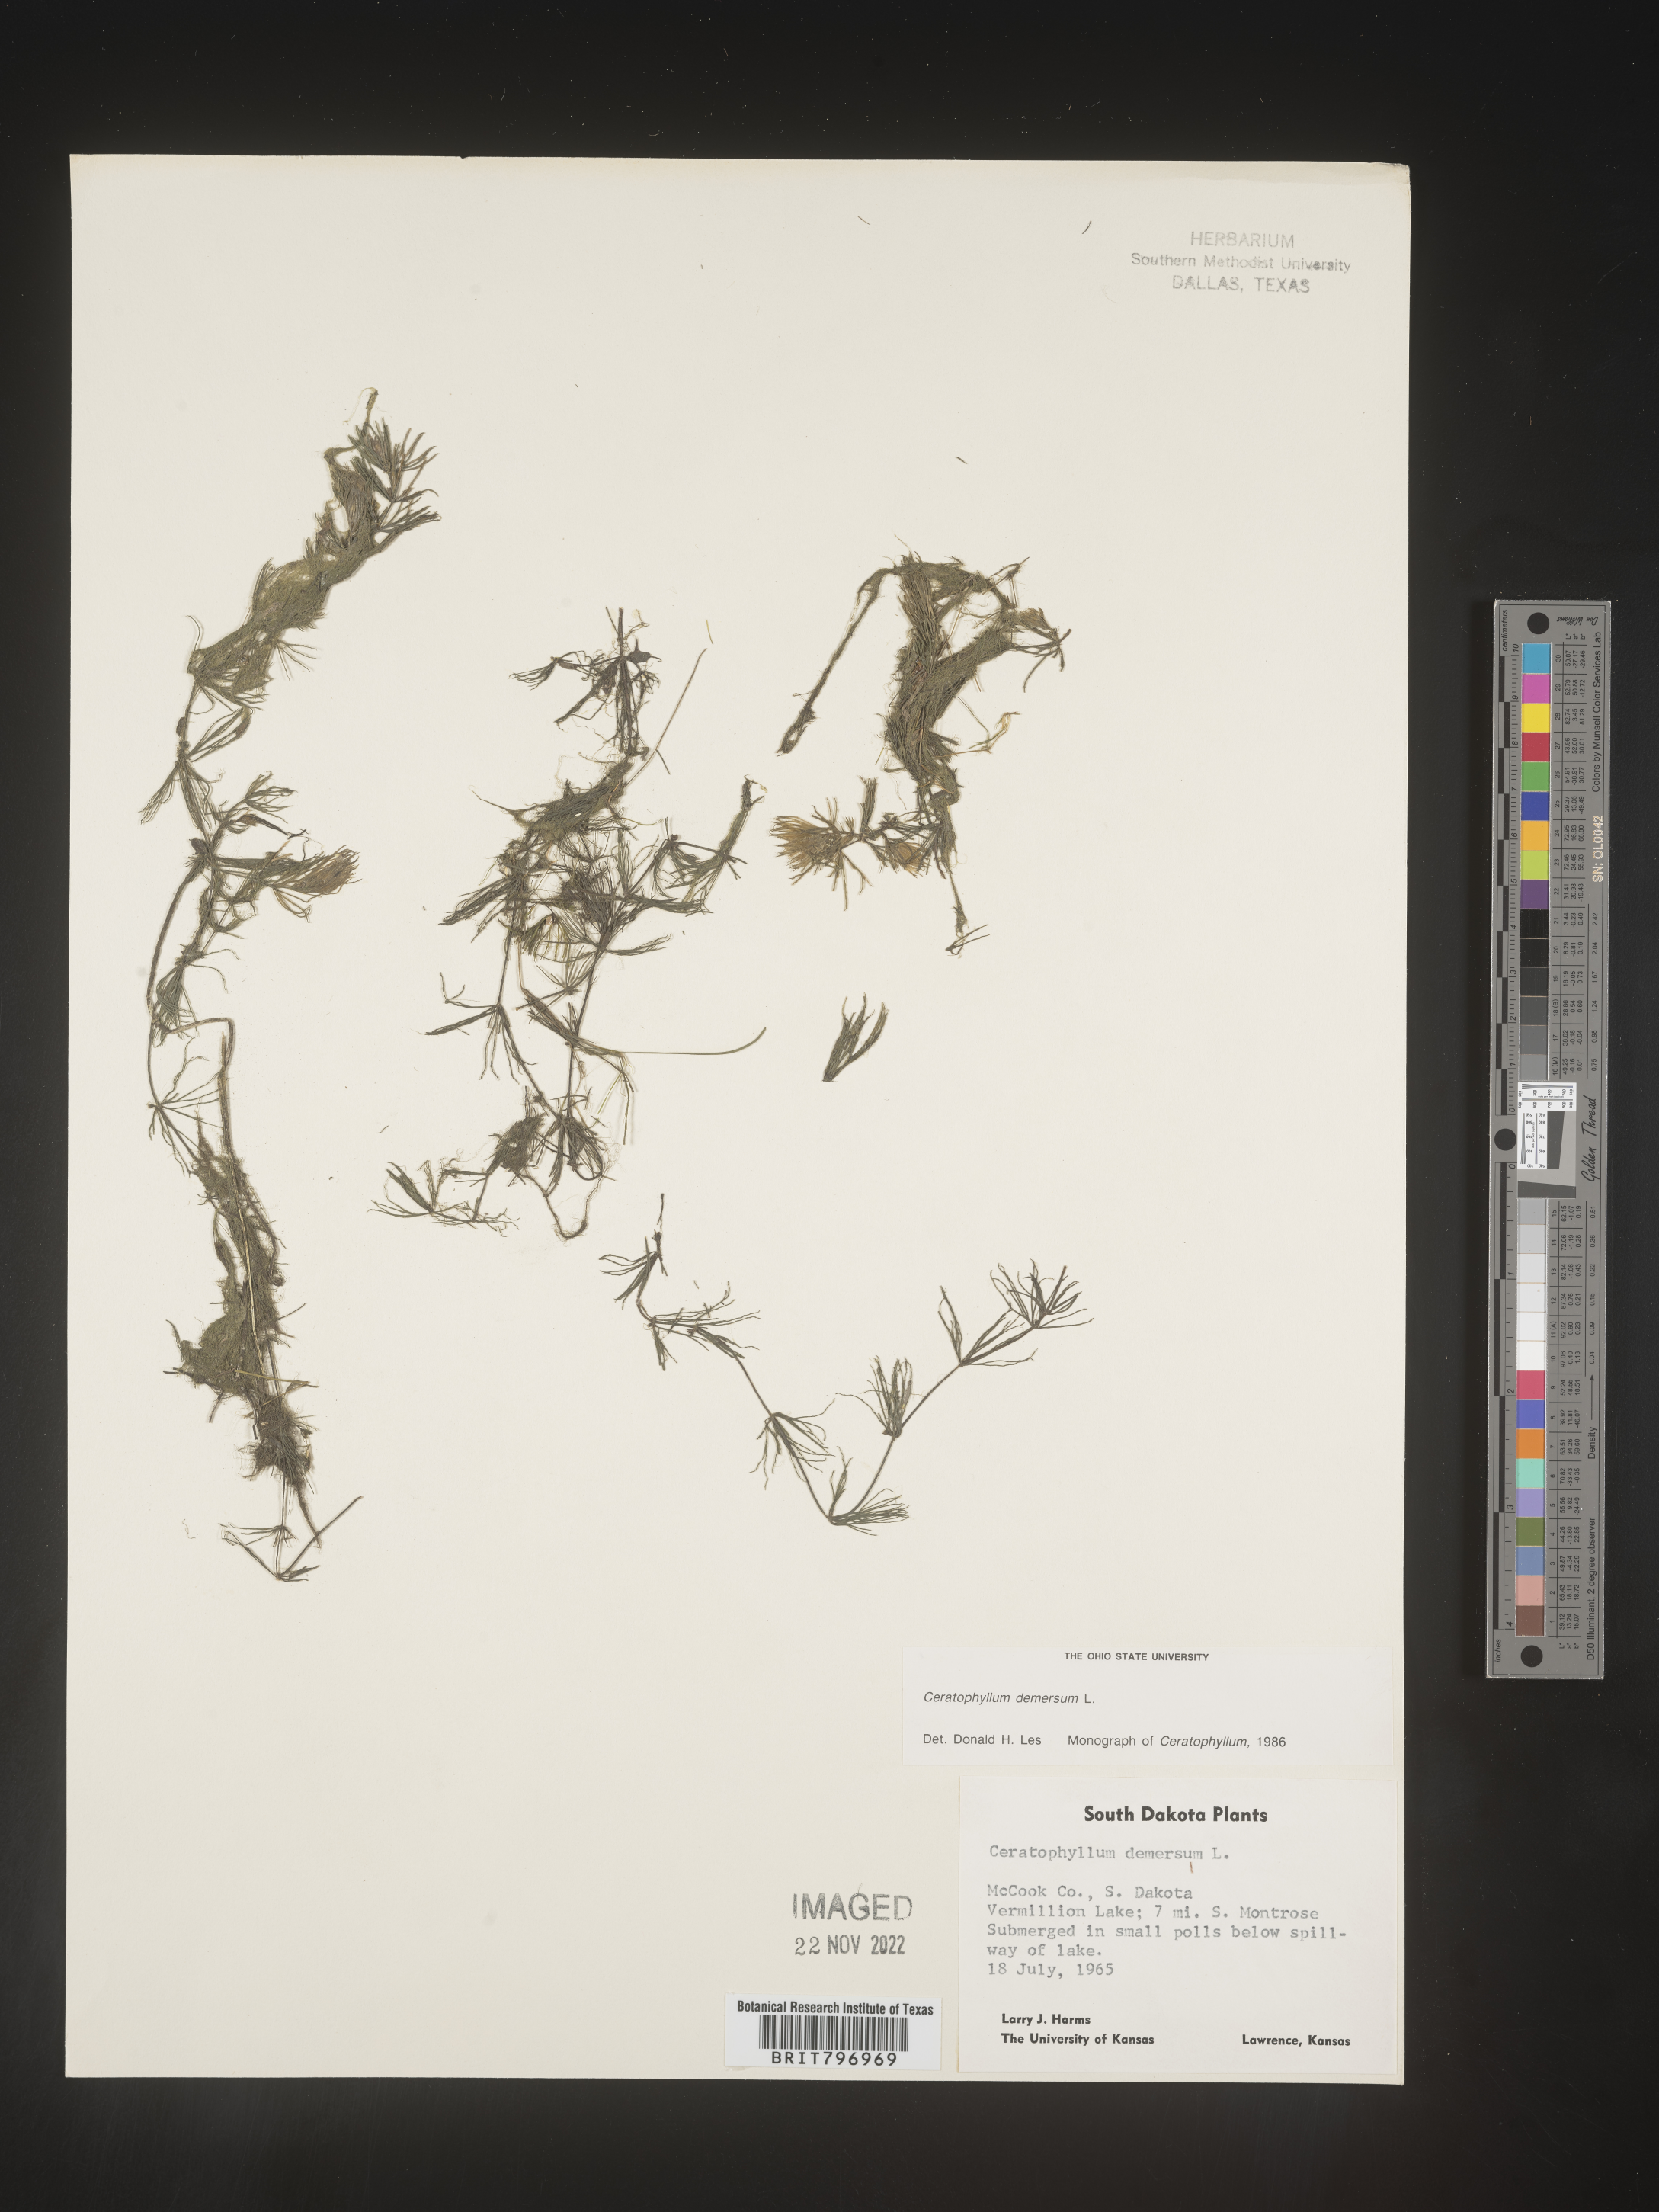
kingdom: Plantae
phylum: Tracheophyta
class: Magnoliopsida
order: Ceratophyllales
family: Ceratophyllaceae
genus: Ceratophyllum
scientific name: Ceratophyllum demersum
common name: Rigid hornwort
